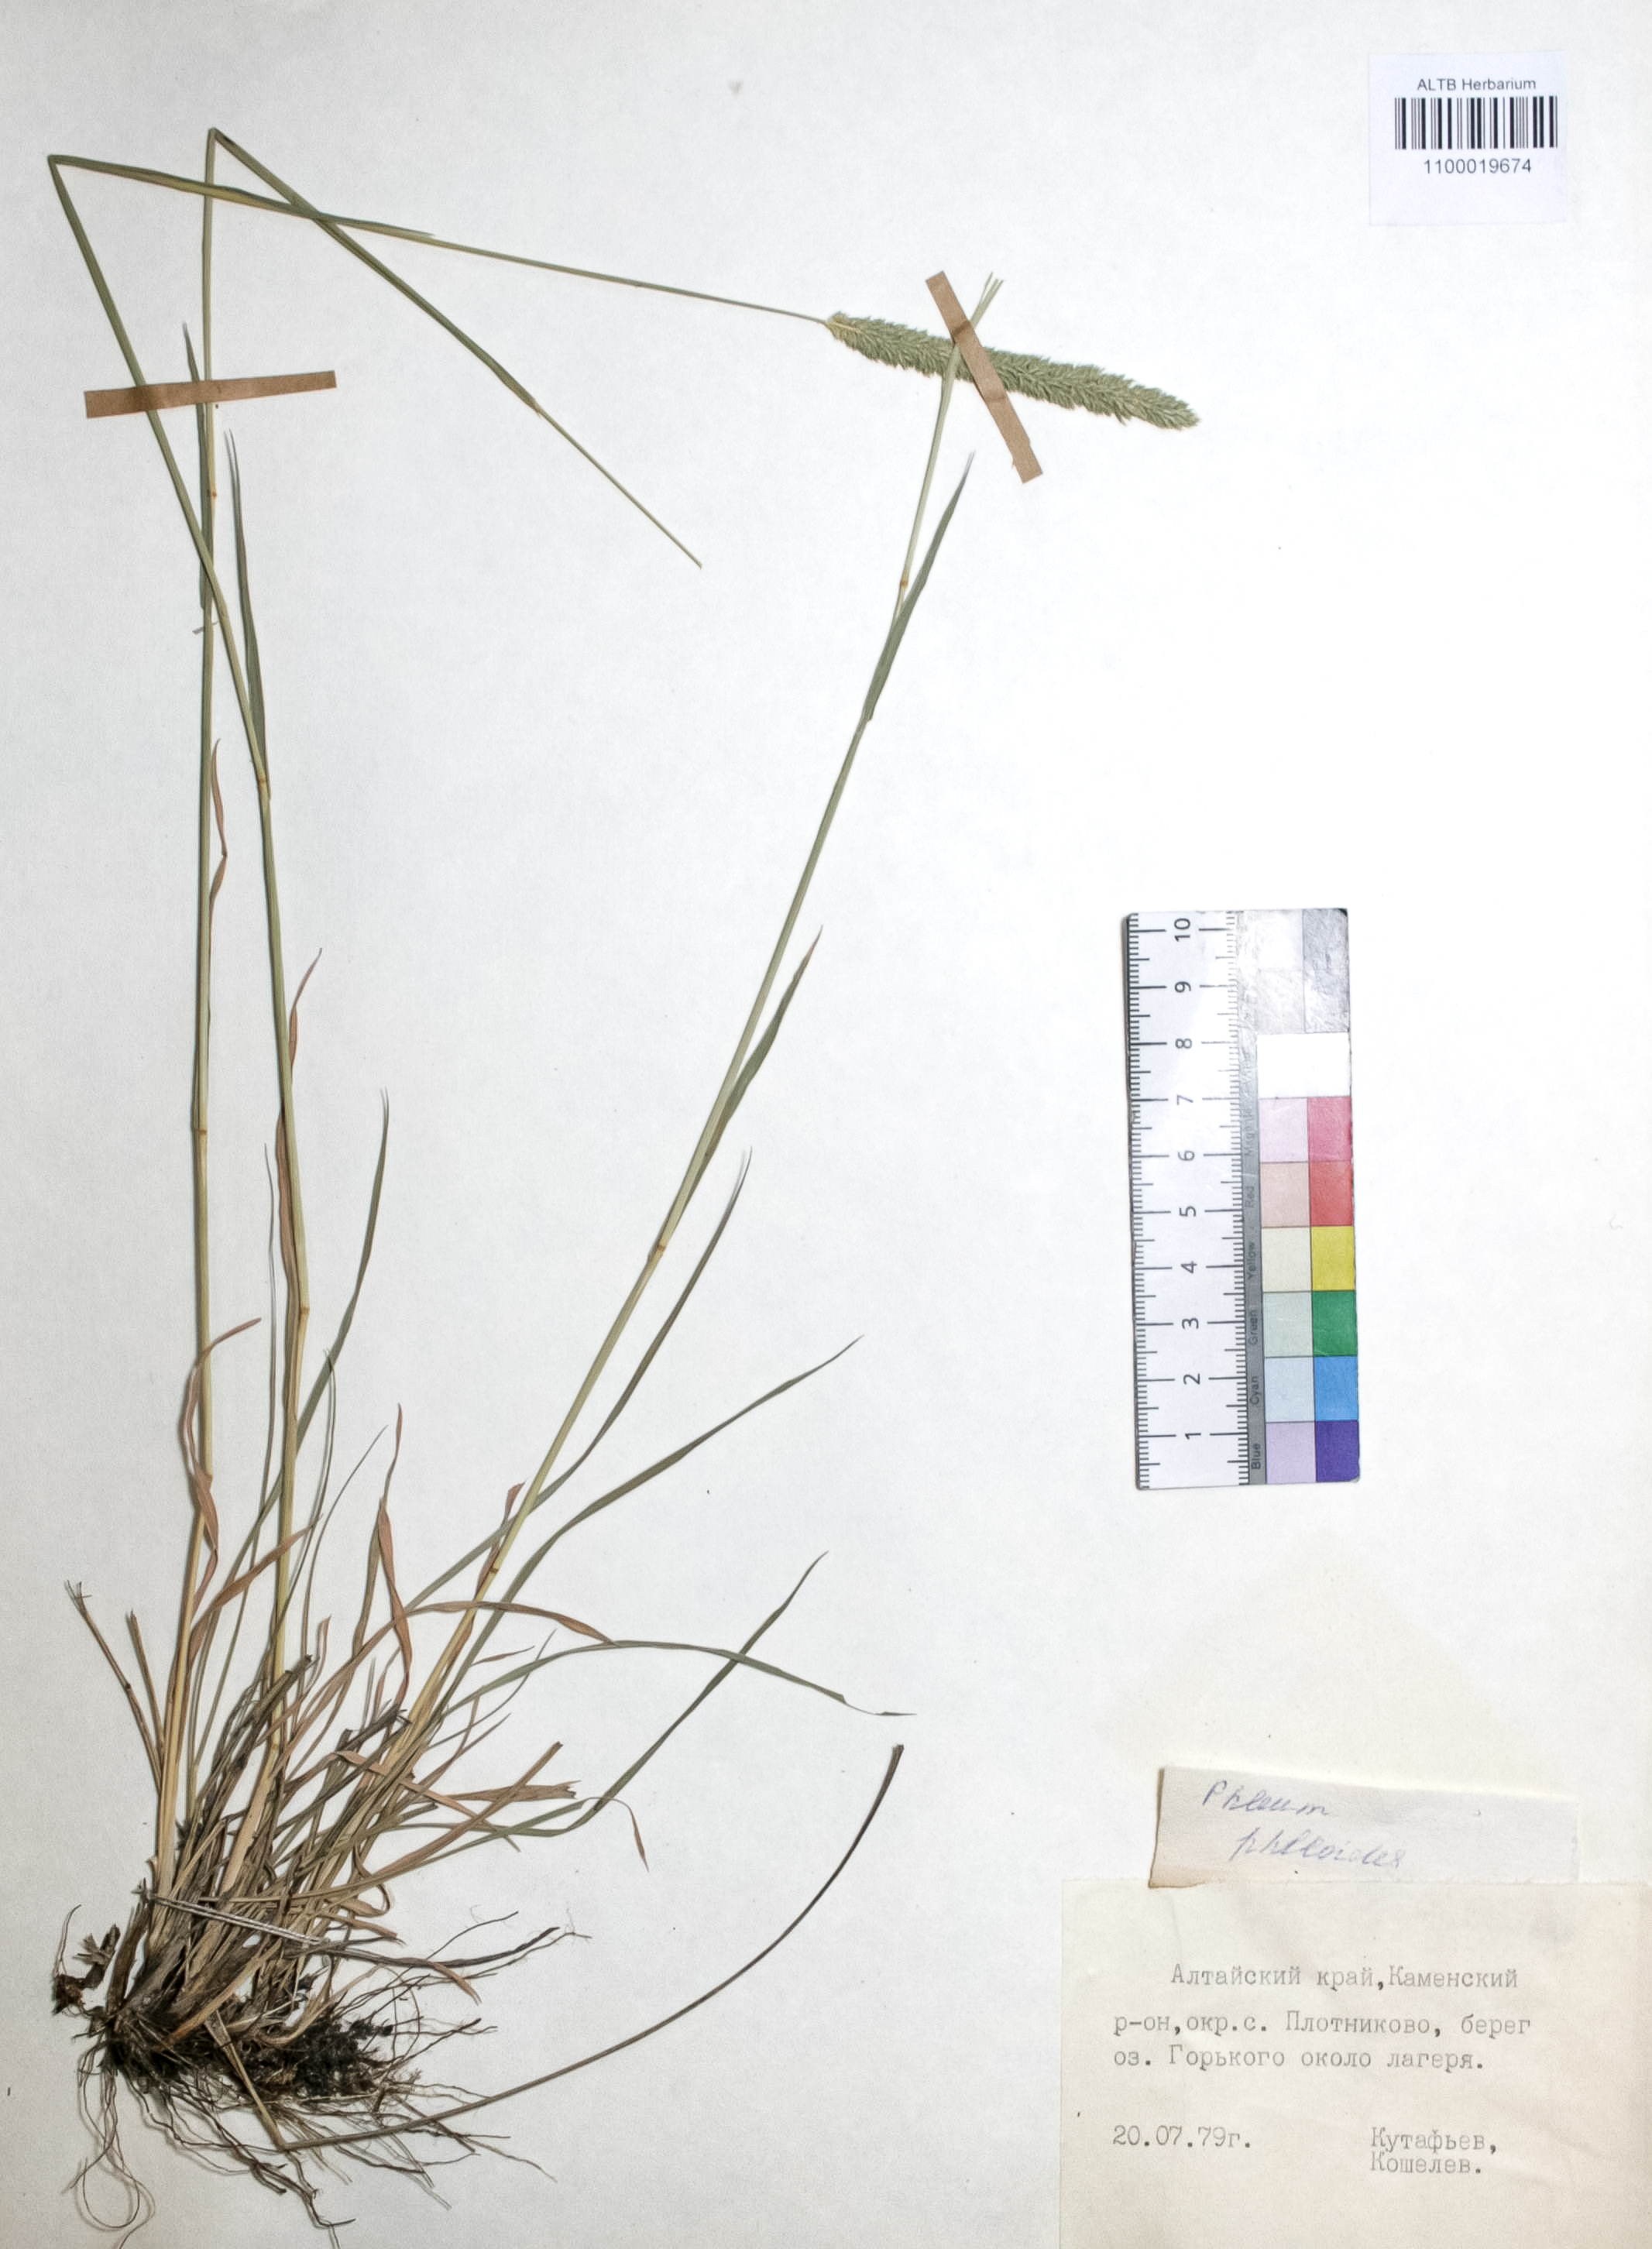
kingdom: Plantae
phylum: Tracheophyta
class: Liliopsida
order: Poales
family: Poaceae
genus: Phleum
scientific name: Phleum phleoides
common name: Purple-stem cat's-tail
